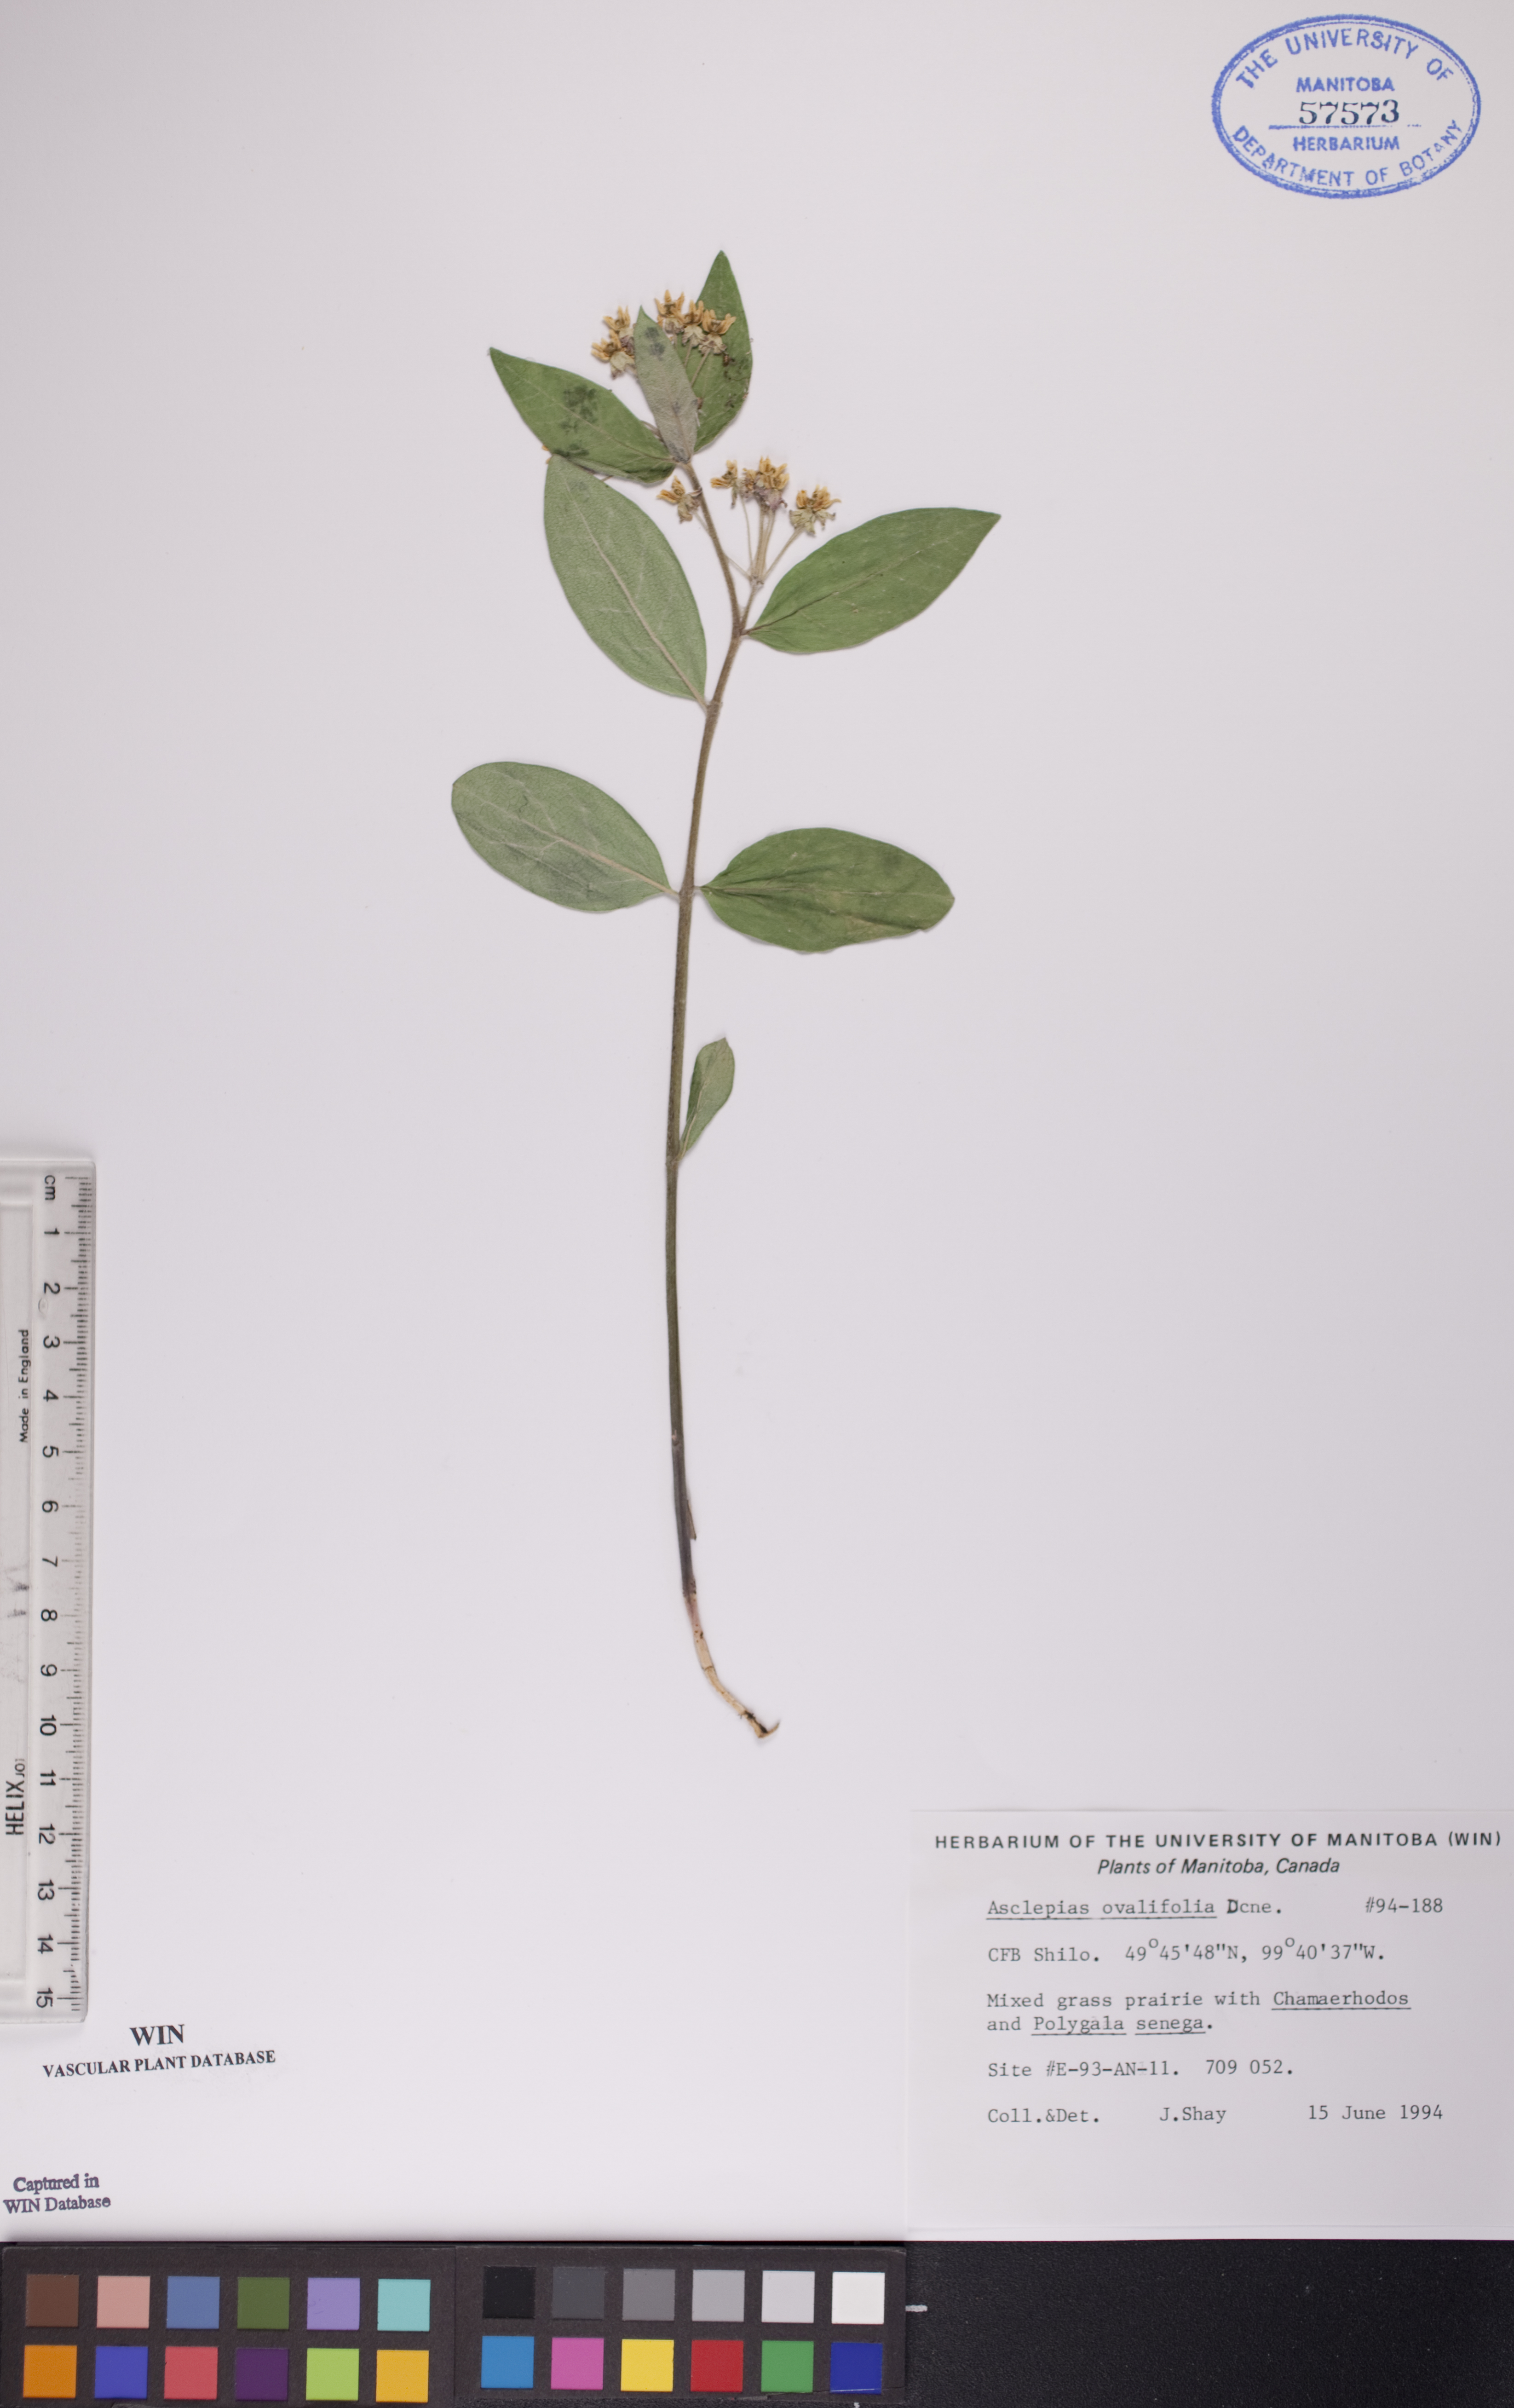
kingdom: Plantae
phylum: Tracheophyta
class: Magnoliopsida
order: Gentianales
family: Apocynaceae
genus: Asclepias
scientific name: Asclepias ovalifolia
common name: Dwarf milkweed
